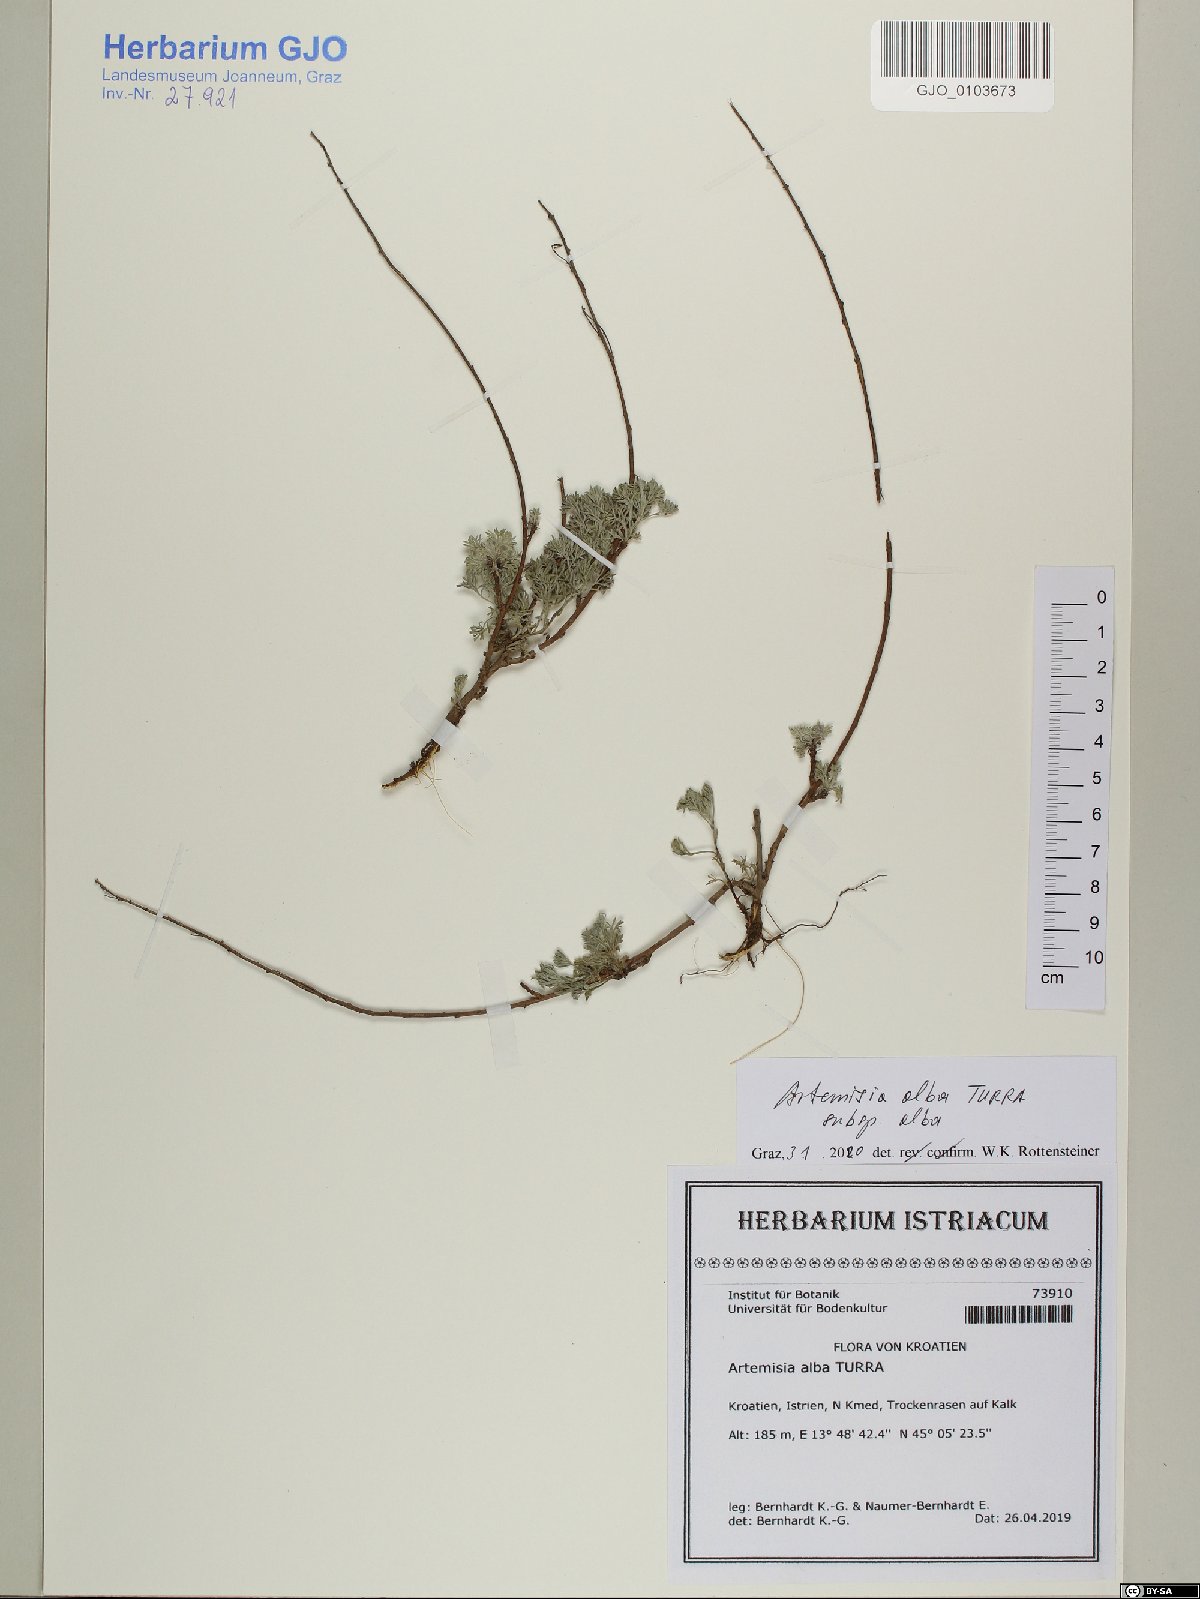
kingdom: Plantae
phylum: Tracheophyta
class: Magnoliopsida
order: Asterales
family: Asteraceae
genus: Artemisia
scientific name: Artemisia alba
